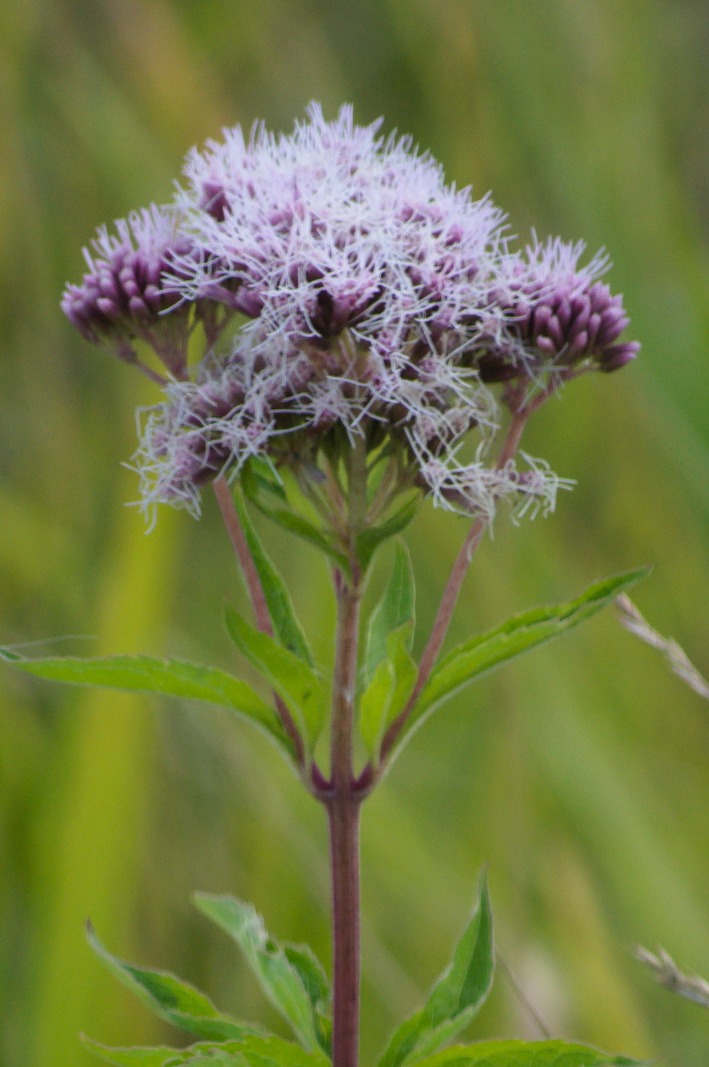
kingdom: Plantae
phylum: Tracheophyta
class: Magnoliopsida
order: Asterales
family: Asteraceae
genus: Eupatorium
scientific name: Eupatorium cannabinum
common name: Hjortetrøst
